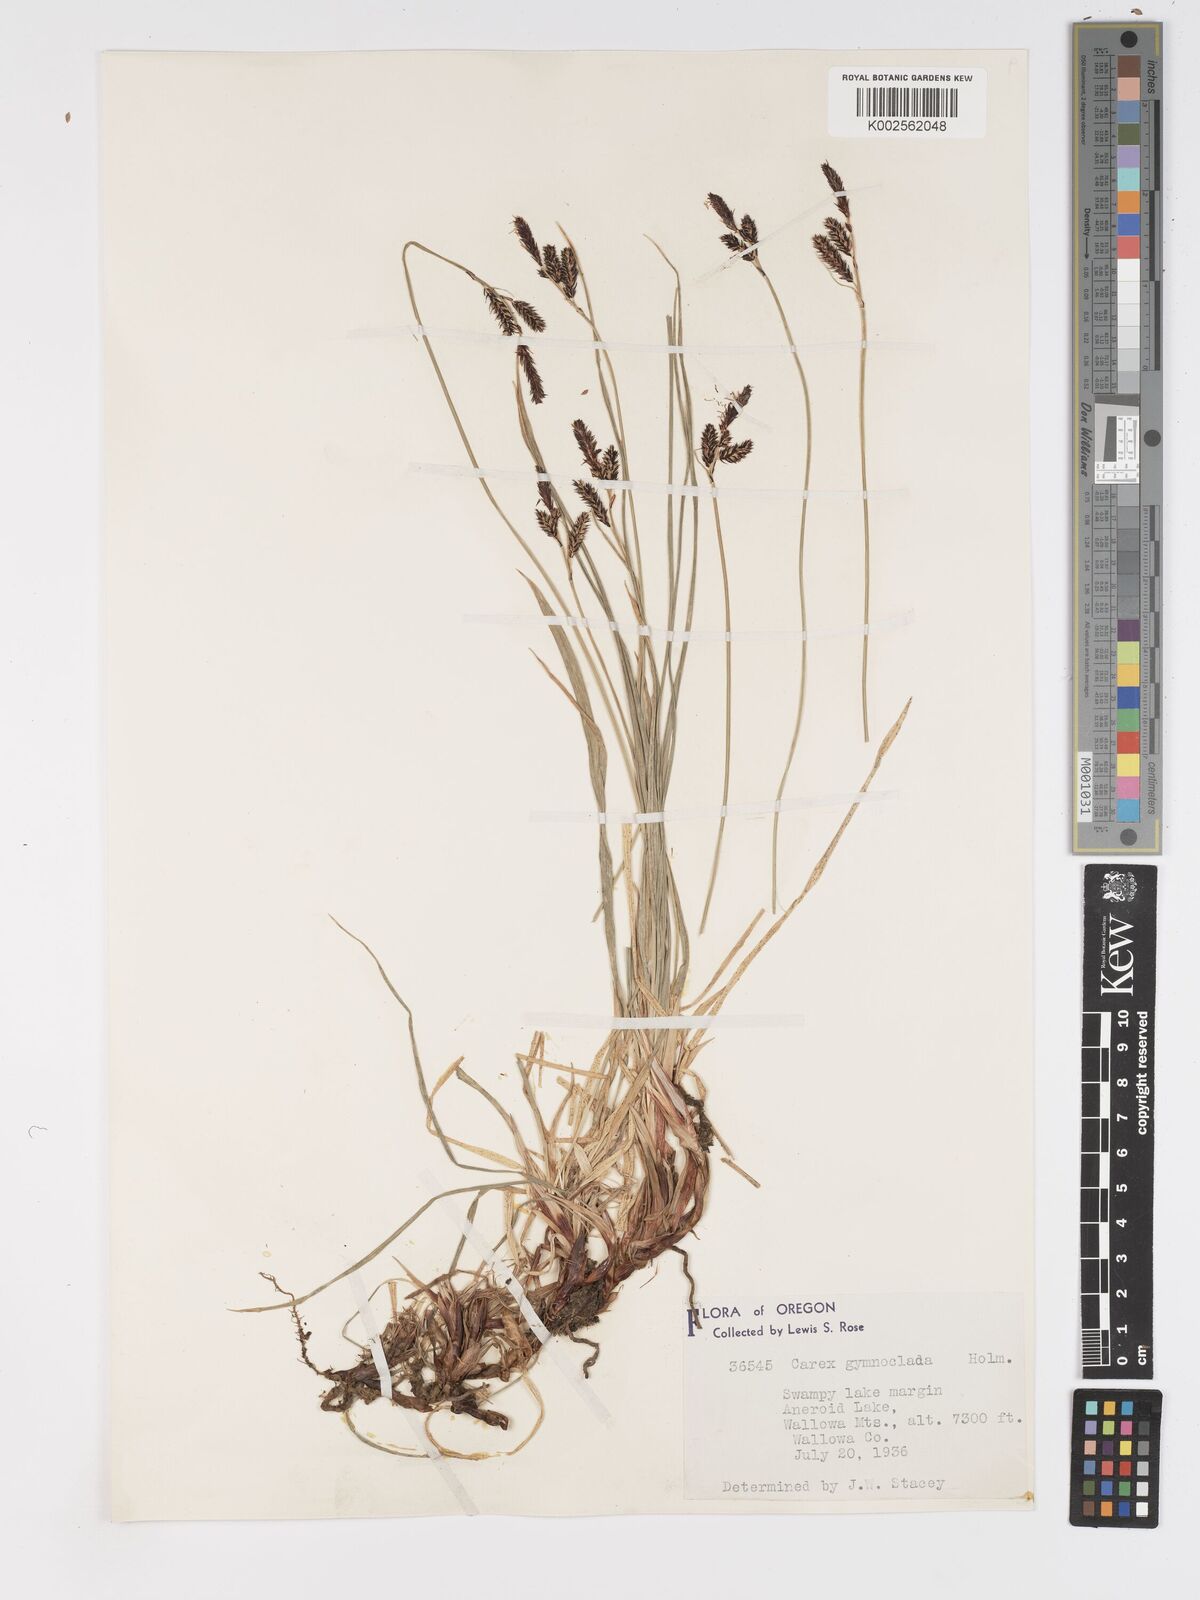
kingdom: Plantae
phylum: Tracheophyta
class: Liliopsida
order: Poales
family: Cyperaceae
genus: Carex
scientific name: Carex scopulorum
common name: Holm's rocky mountain sedge
